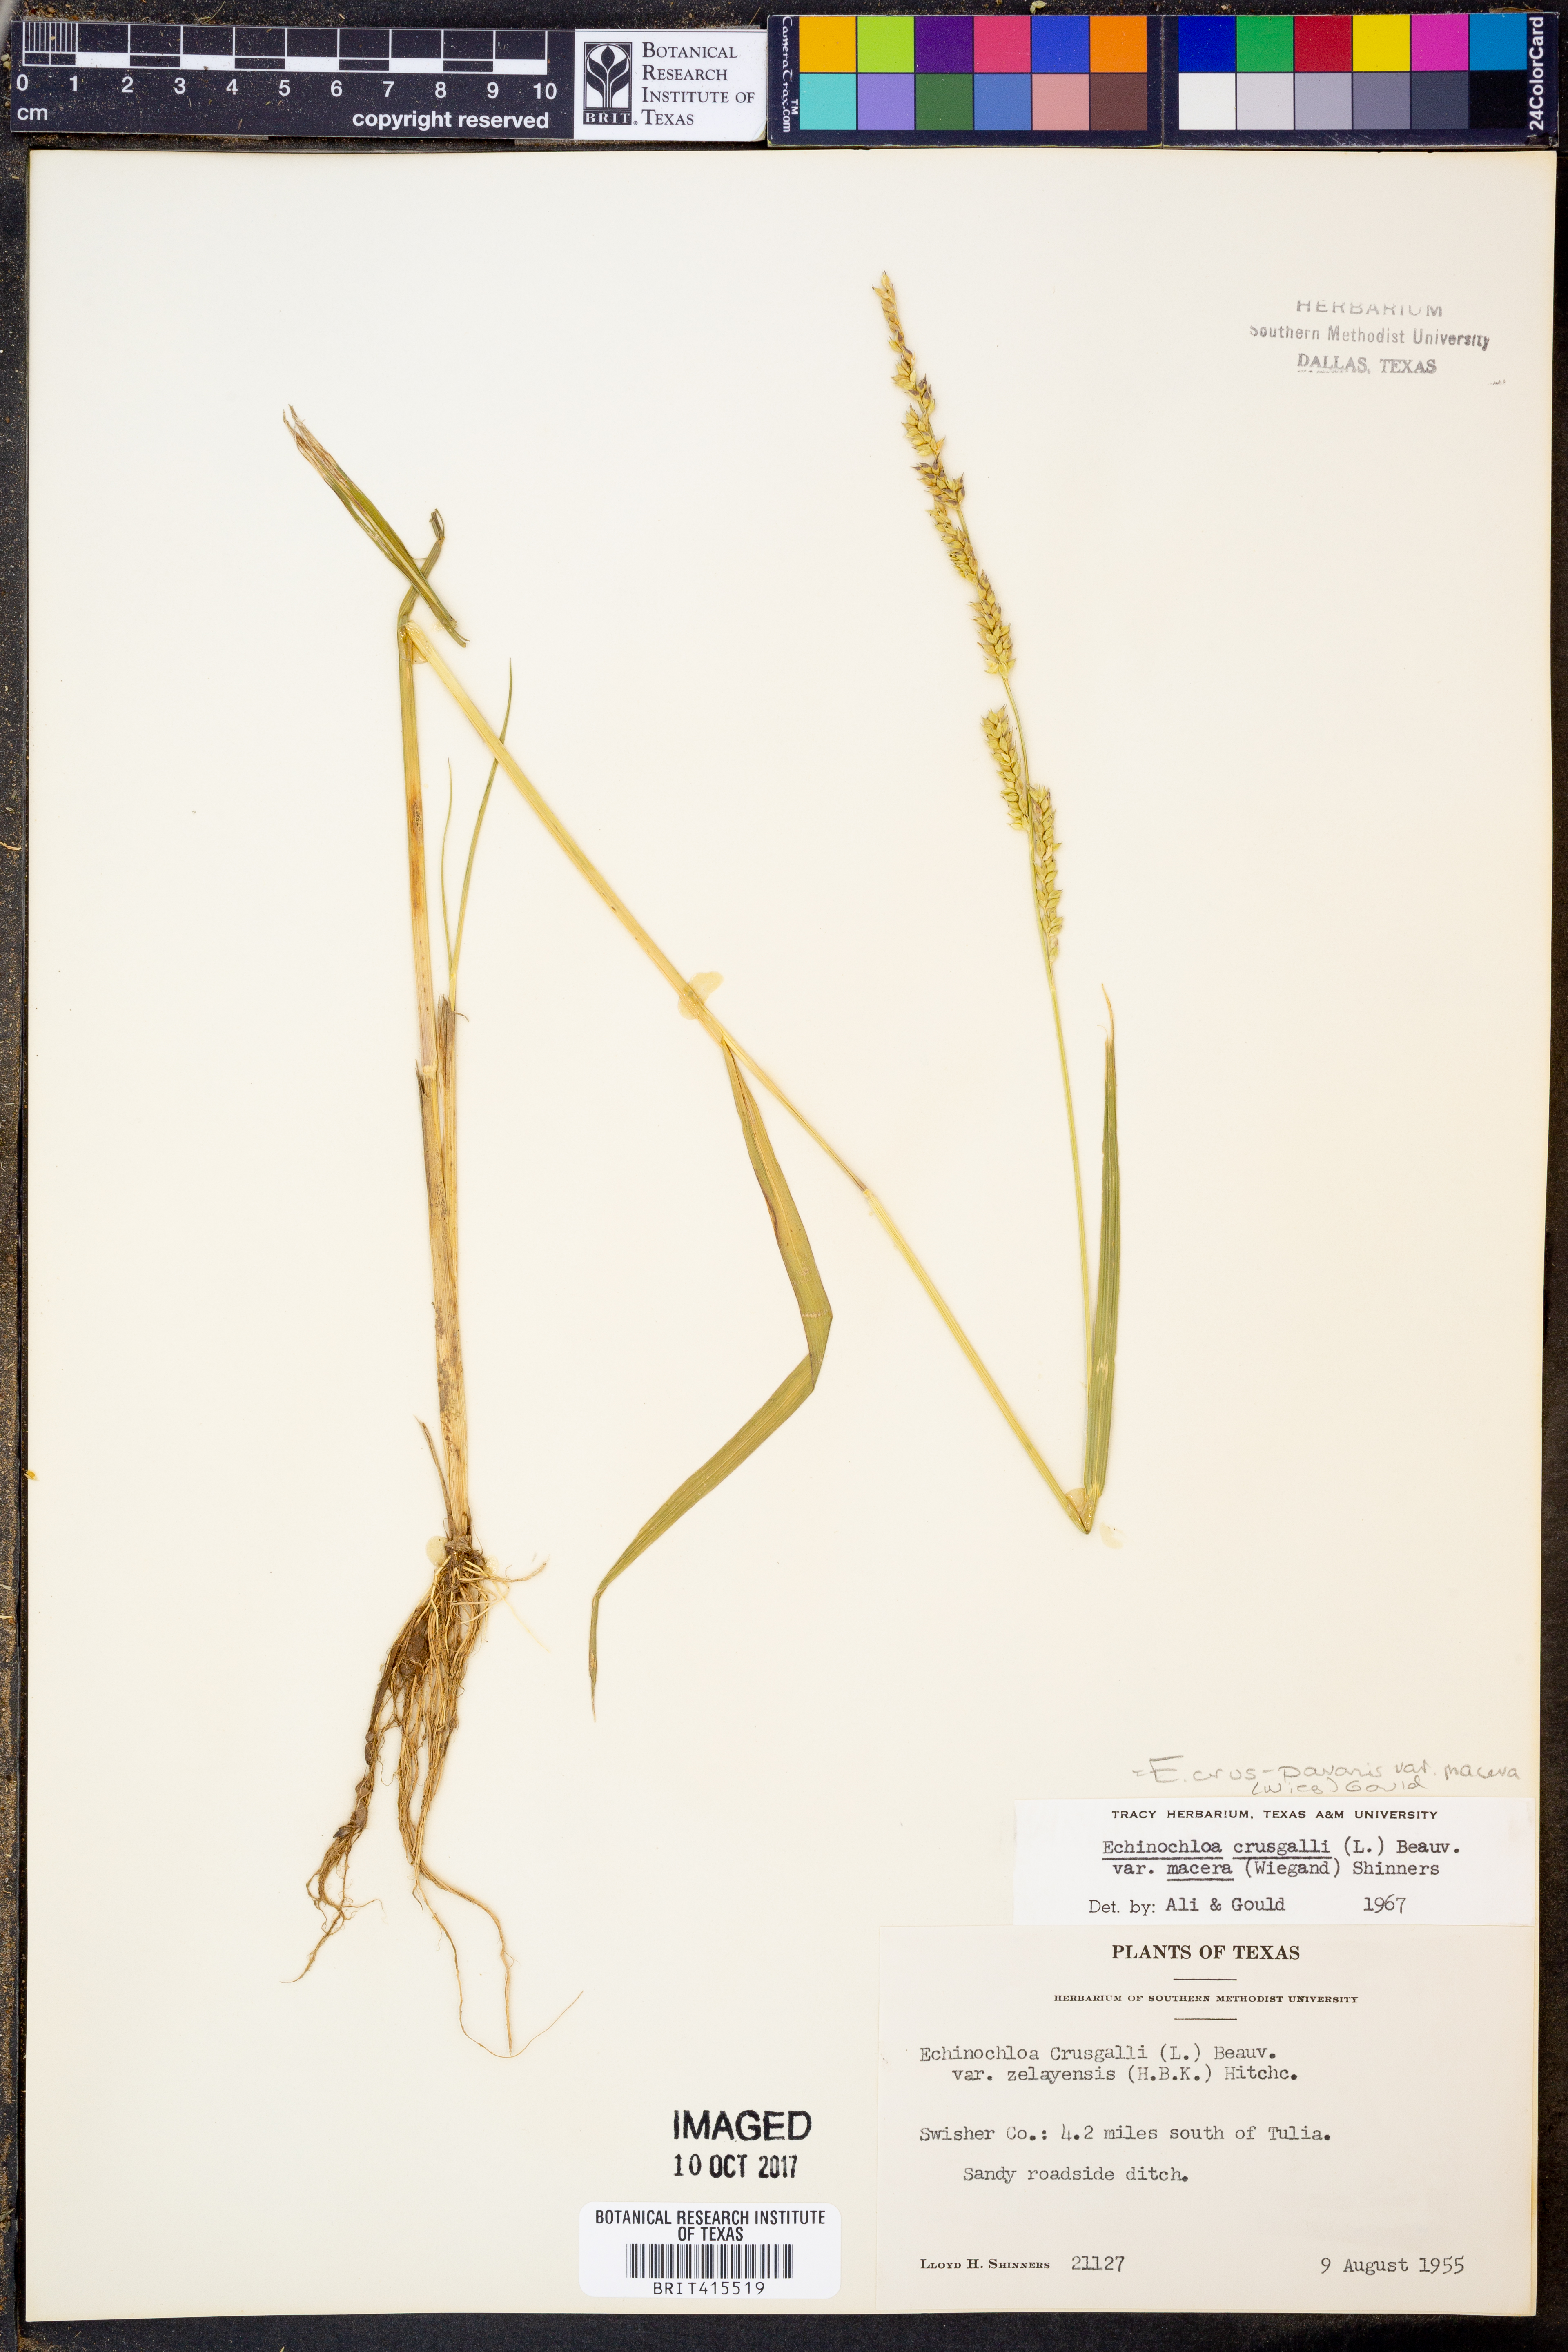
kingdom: Plantae
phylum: Tracheophyta
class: Liliopsida
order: Poales
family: Poaceae
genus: Echinochloa
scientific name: Echinochloa crus-galli
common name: Cockspur
